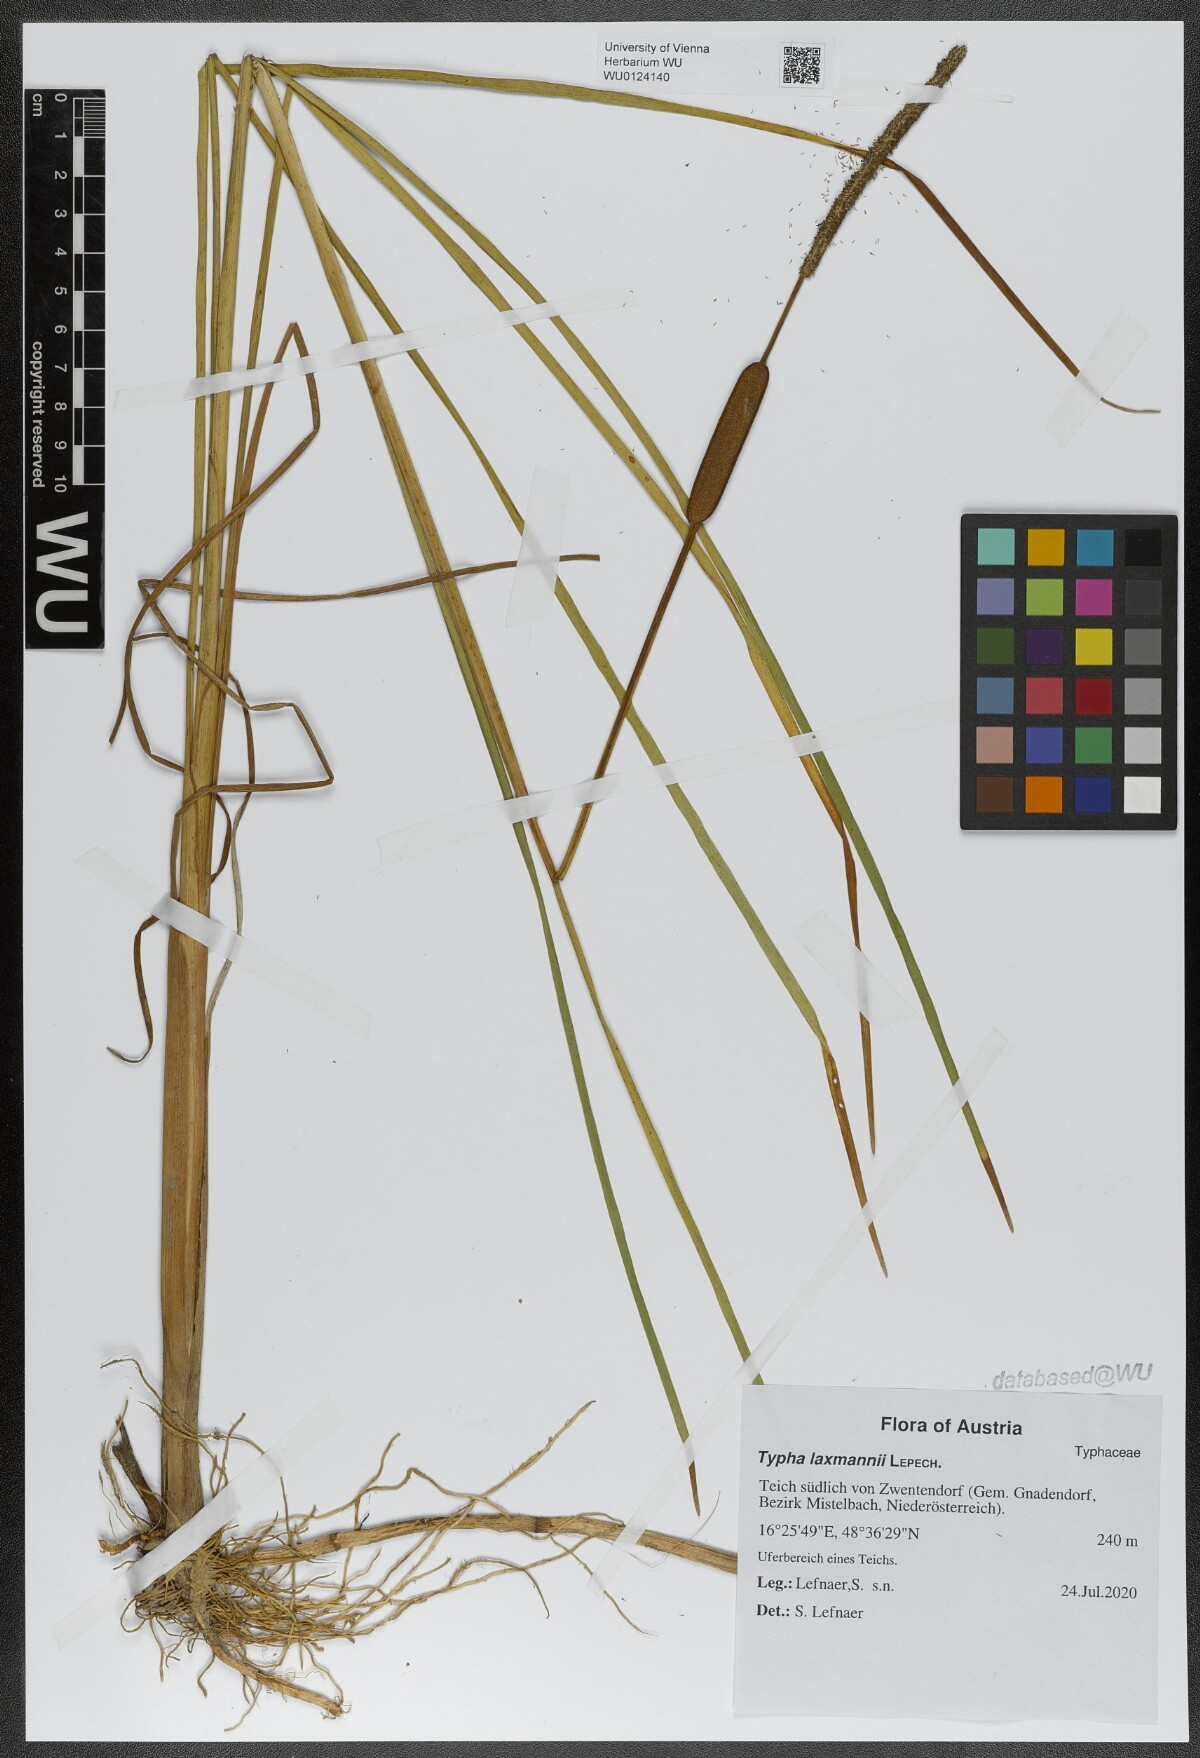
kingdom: Plantae
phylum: Tracheophyta
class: Liliopsida
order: Poales
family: Typhaceae
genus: Typha
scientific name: Typha laxmannii
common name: Laxman’s bulrush
